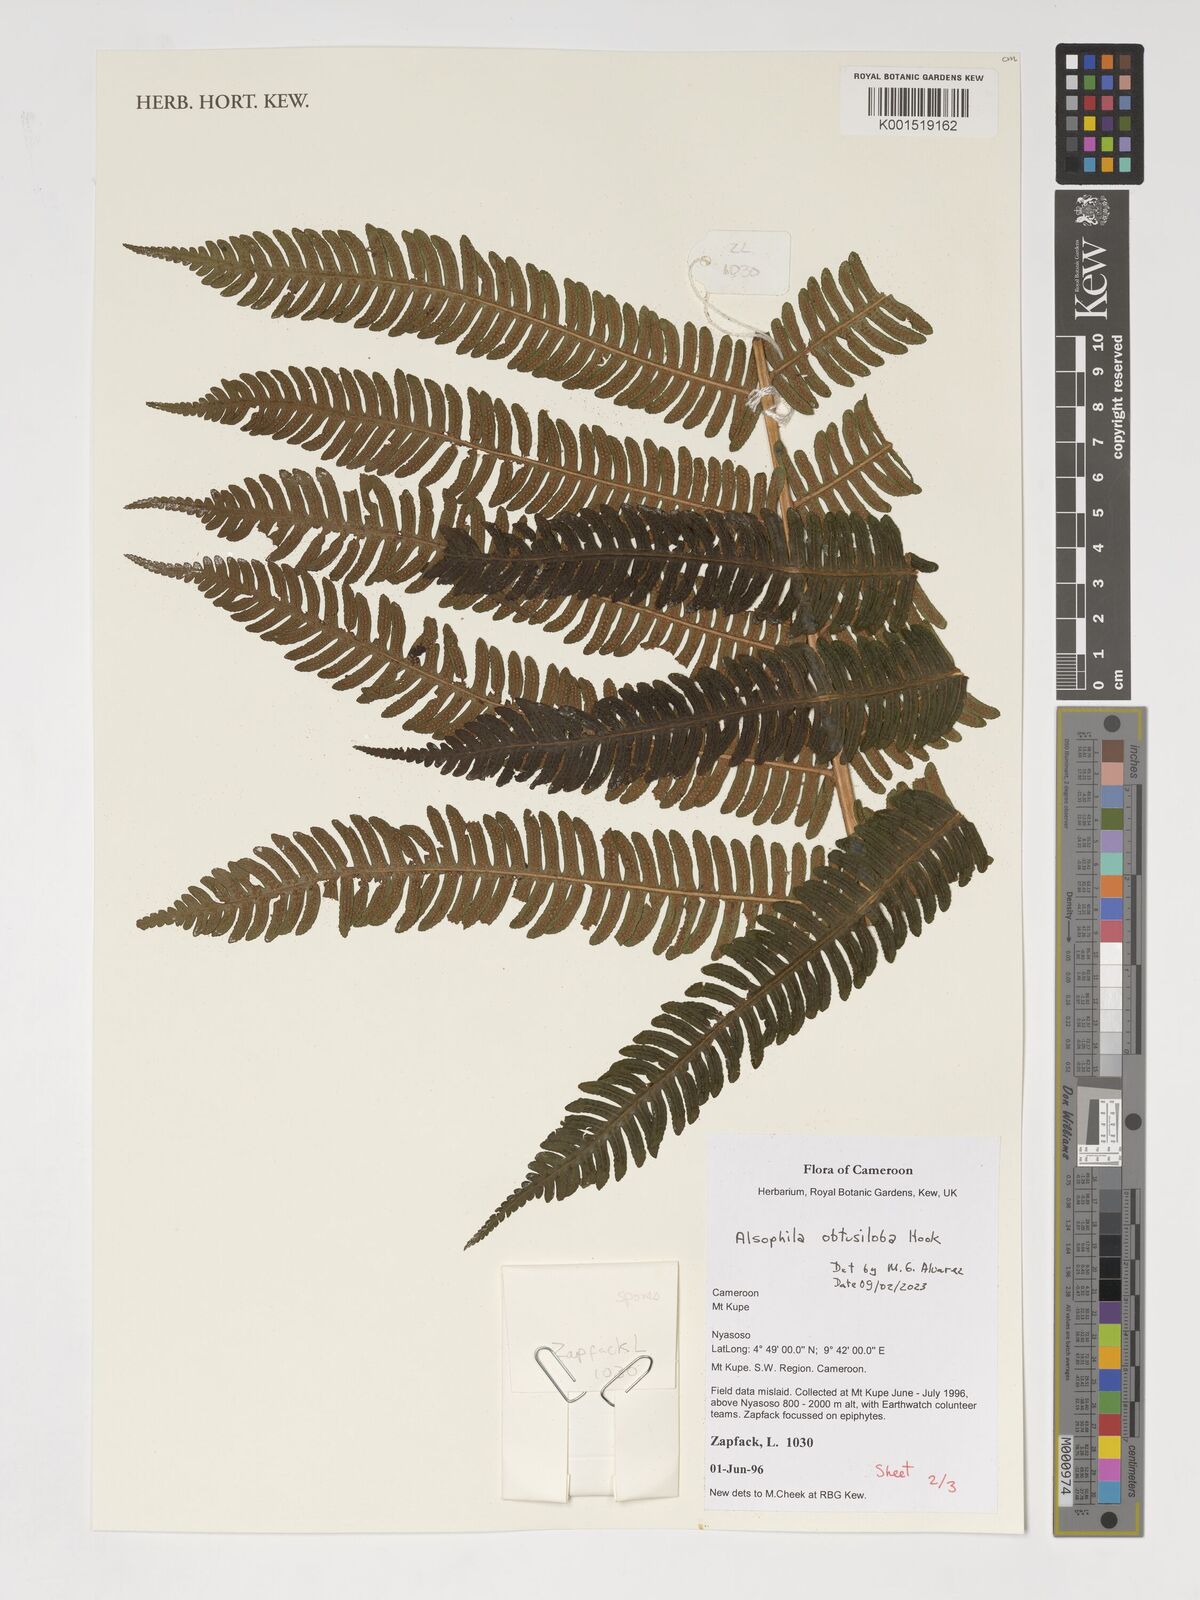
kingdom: Plantae
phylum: Tracheophyta
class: Polypodiopsida
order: Cyatheales
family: Cyatheaceae
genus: Alsophila
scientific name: Alsophila obtusiloba
